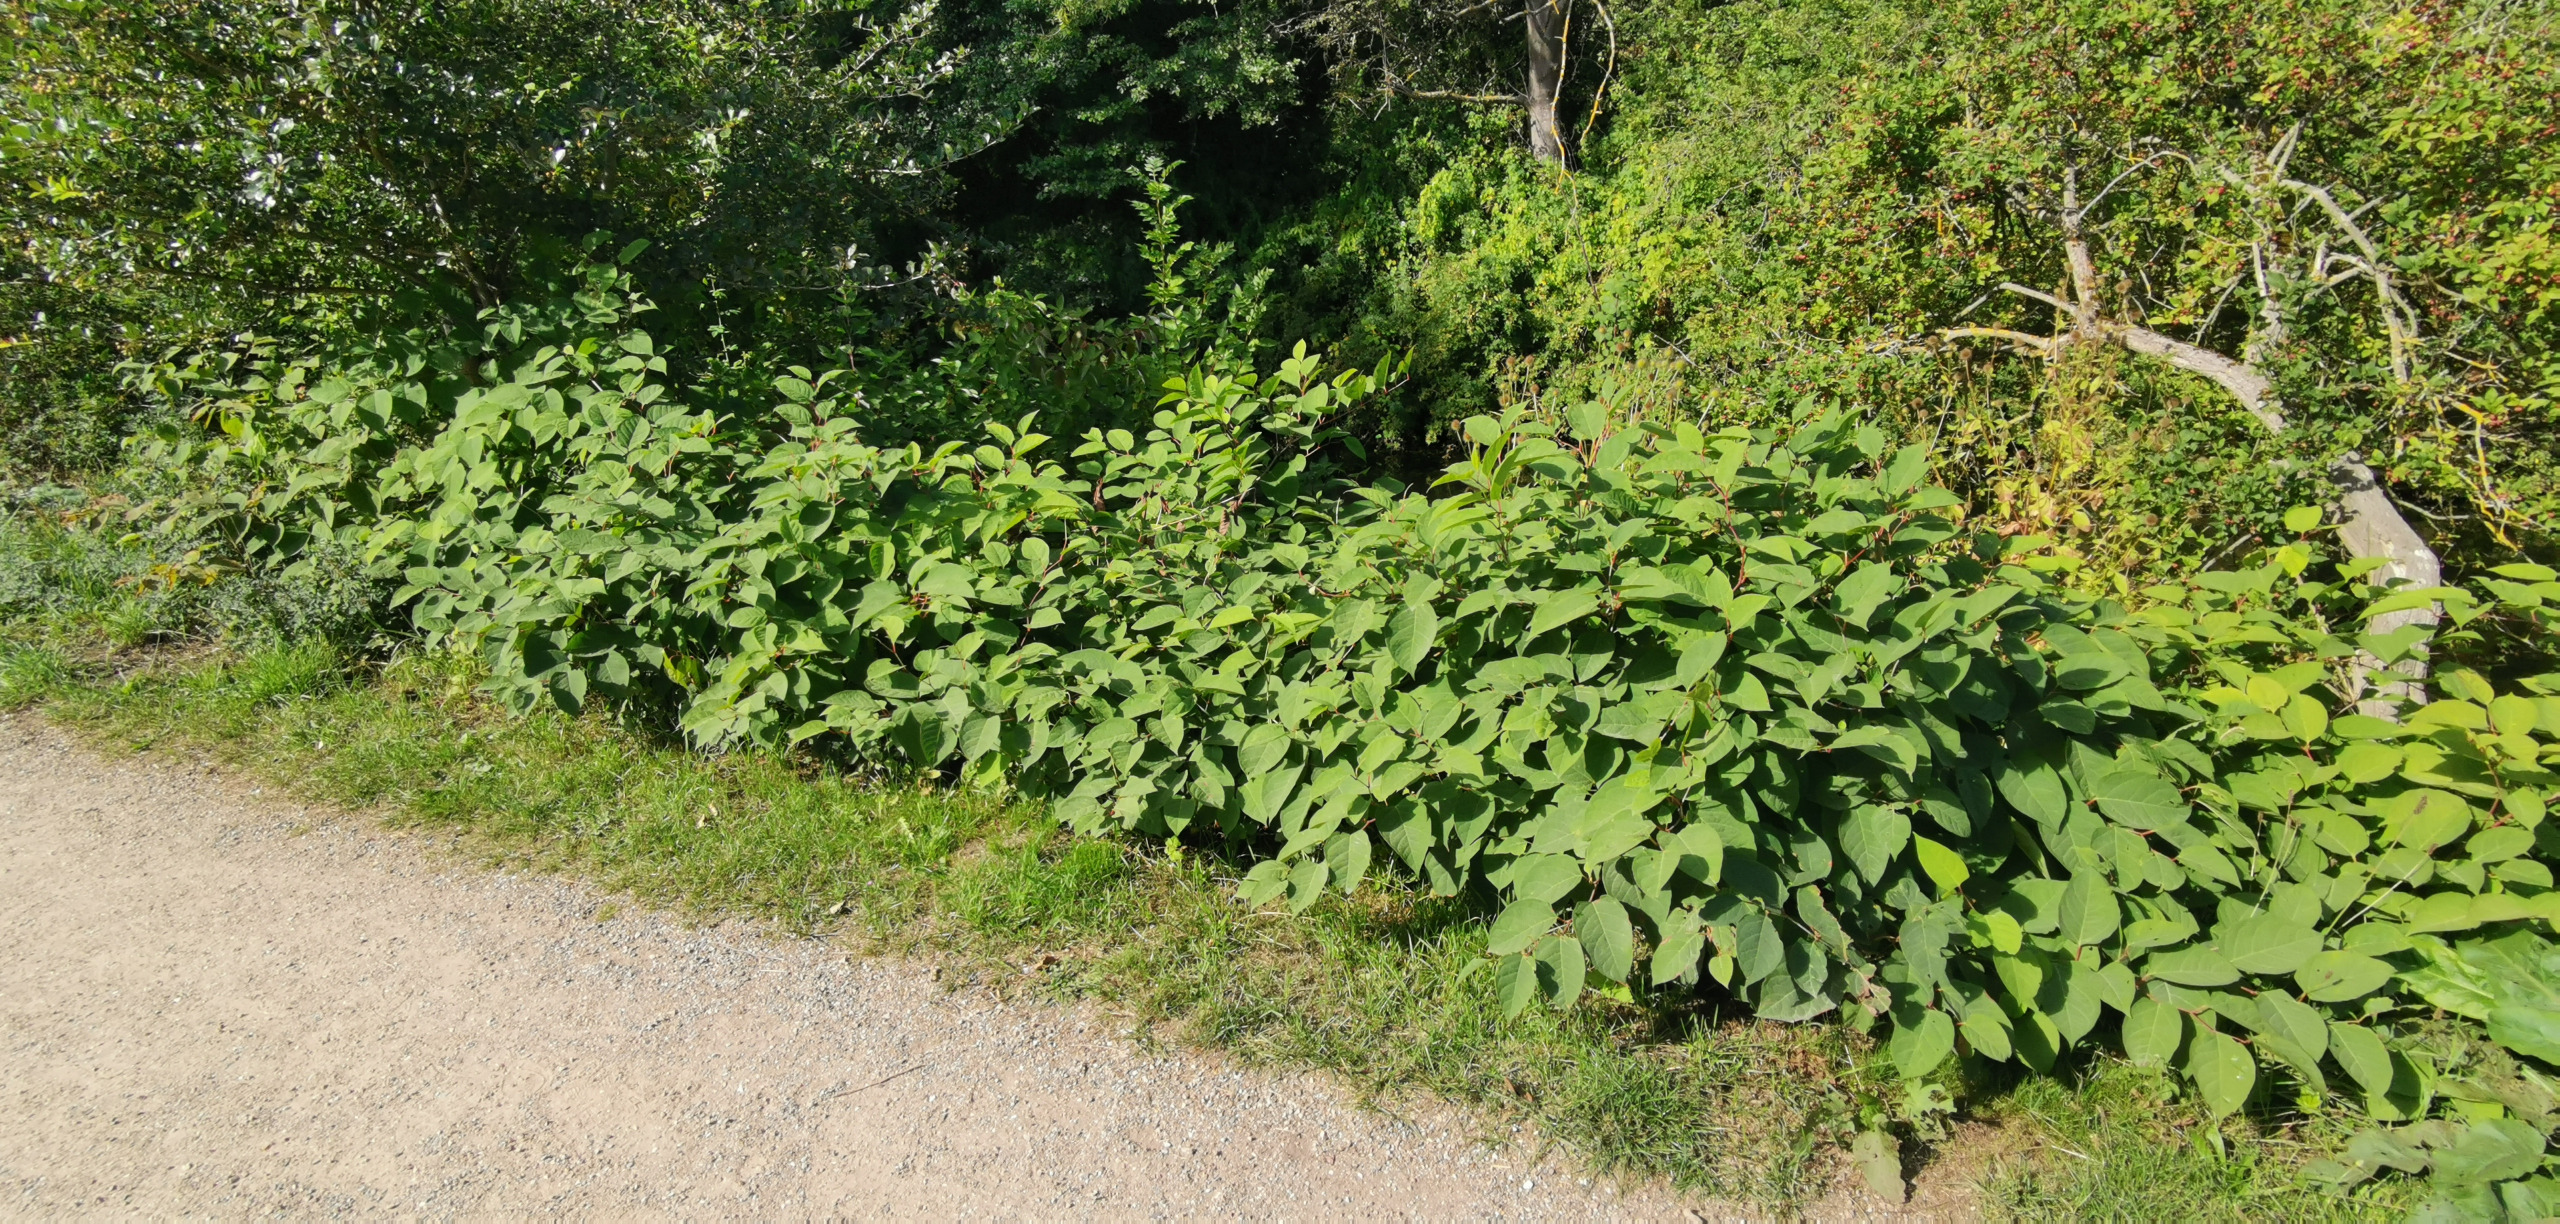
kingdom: Plantae
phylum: Tracheophyta
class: Magnoliopsida
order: Caryophyllales
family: Polygonaceae
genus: Reynoutria
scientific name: Reynoutria japonica
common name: Japan-pileurt
